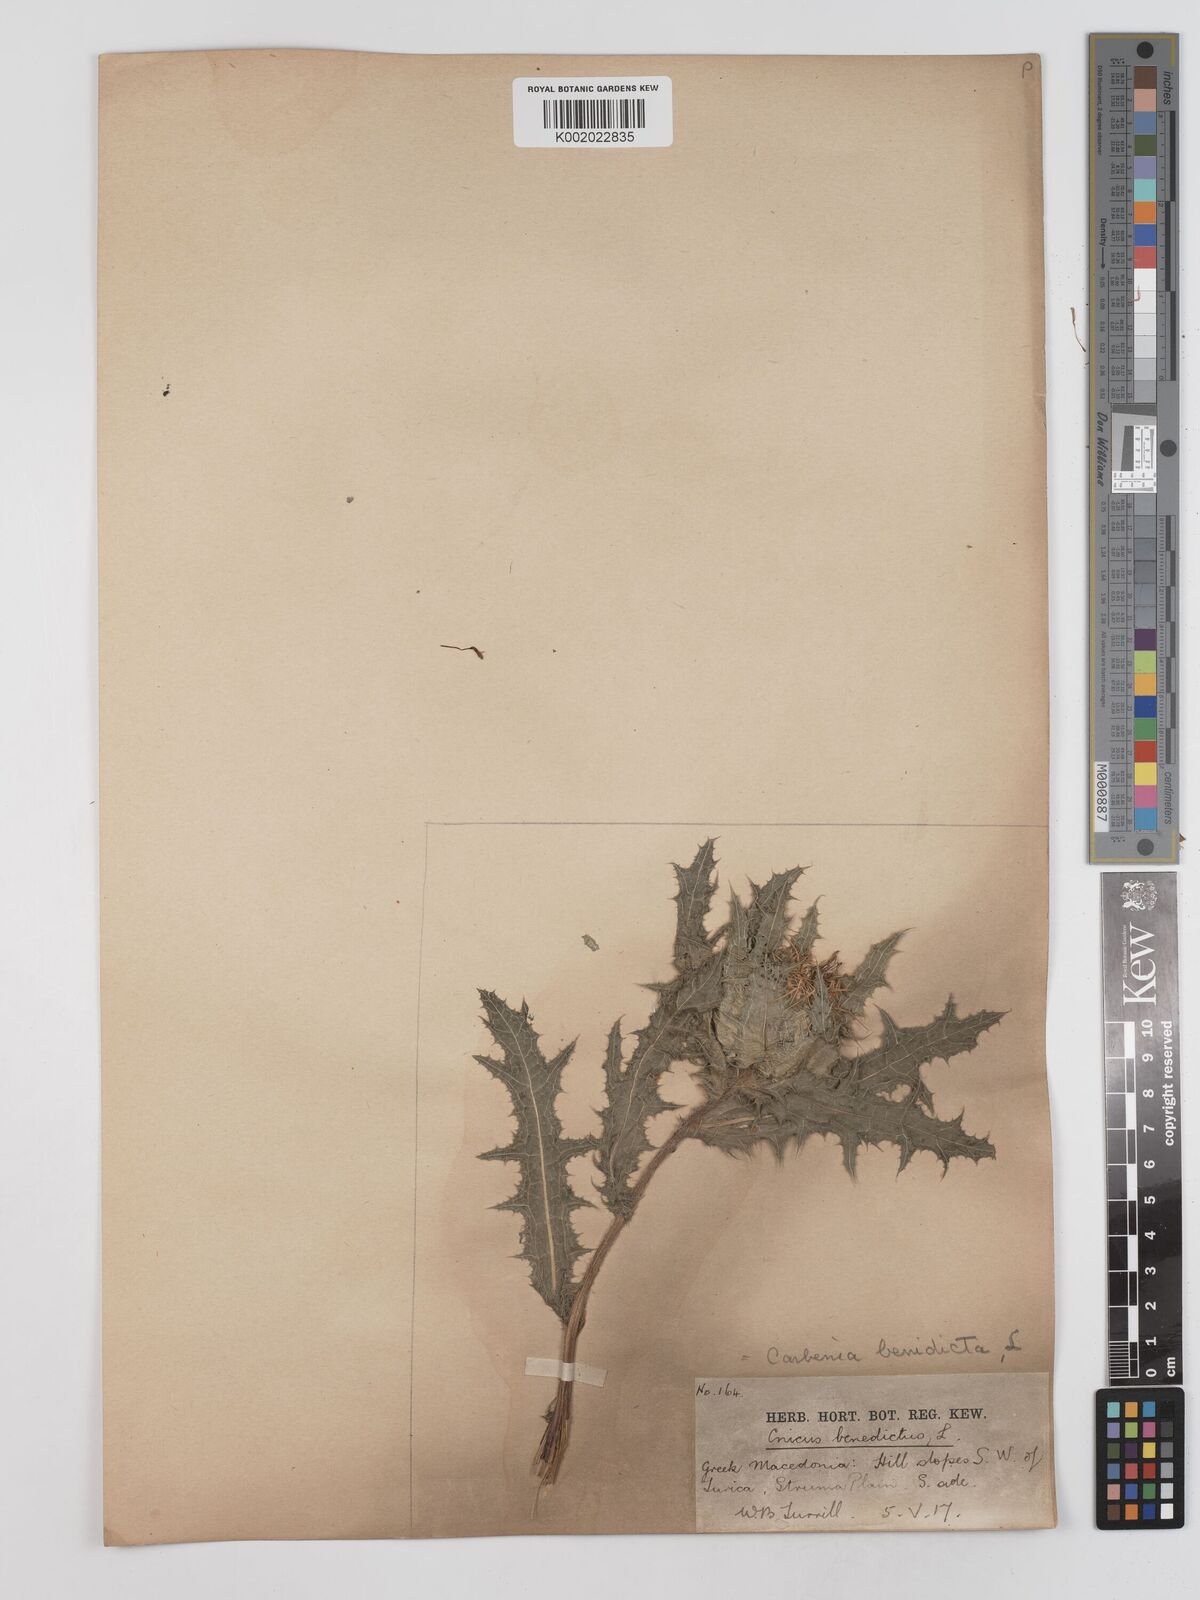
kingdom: Plantae
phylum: Tracheophyta
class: Magnoliopsida
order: Asterales
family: Asteraceae
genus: Centaurea
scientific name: Centaurea benedicta
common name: Blessed thistle
